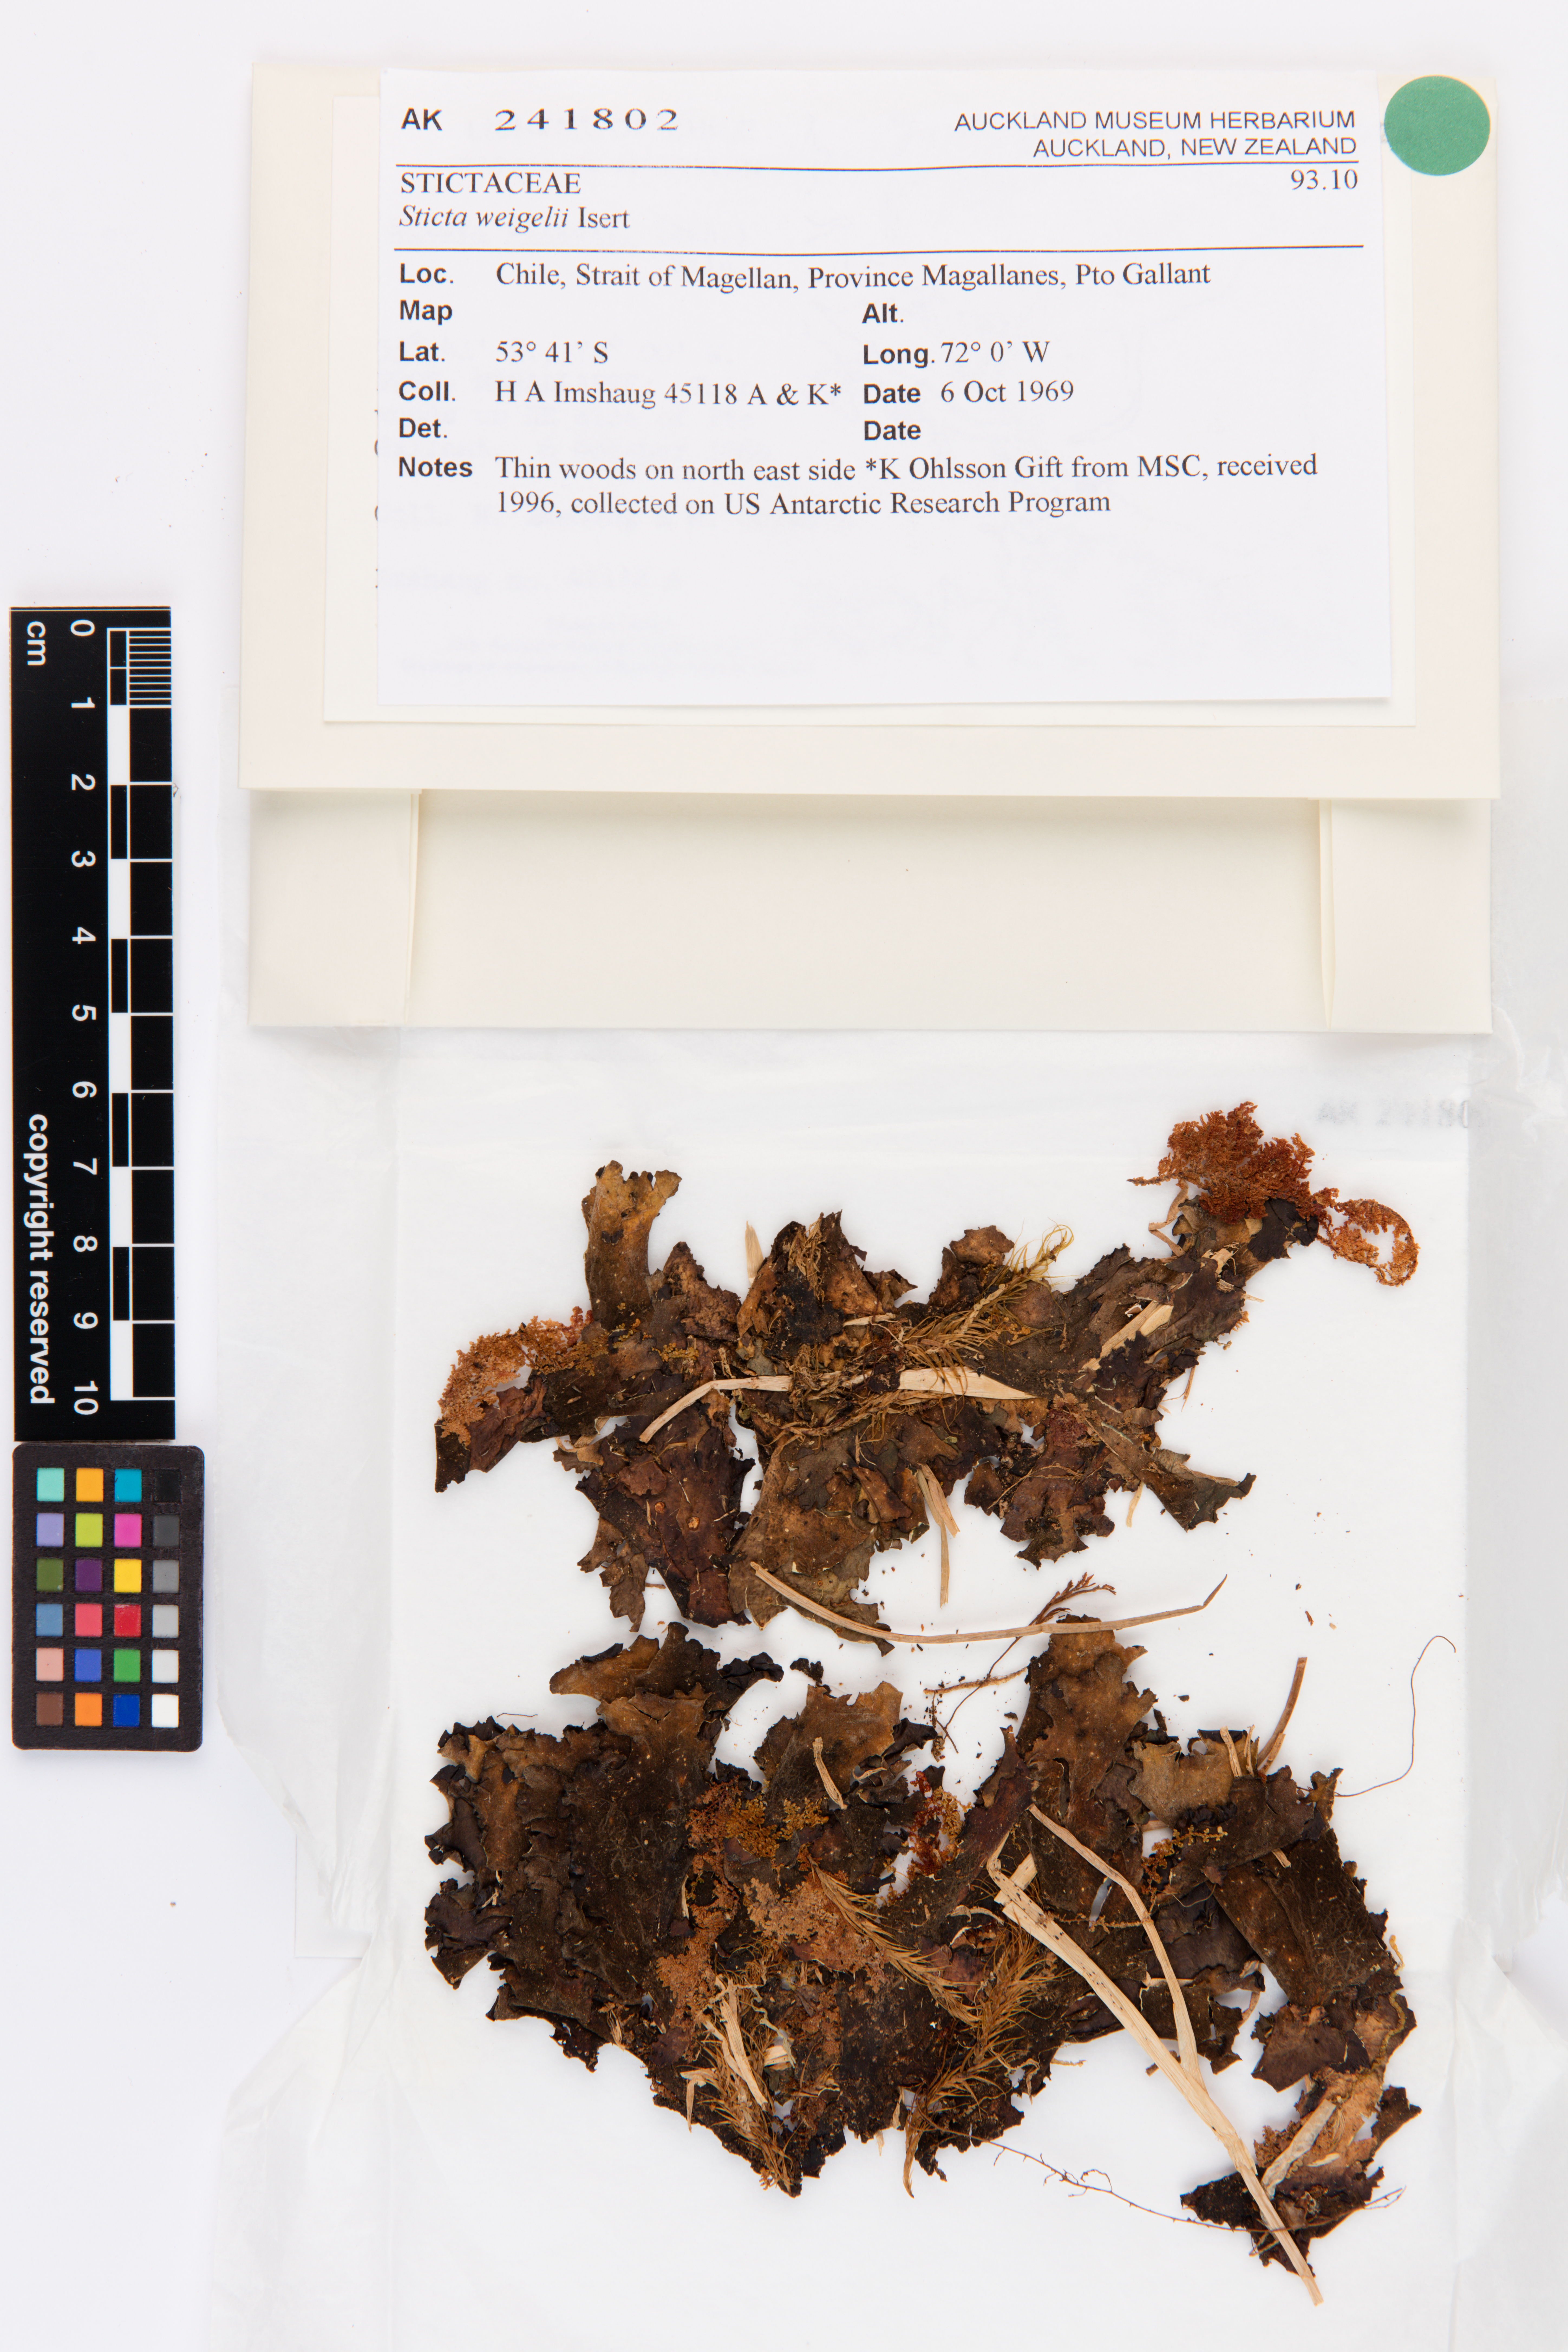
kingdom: Fungi
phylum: Ascomycota
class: Lecanoromycetes
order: Peltigerales
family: Lobariaceae
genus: Sticta
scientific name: Sticta weigelii
